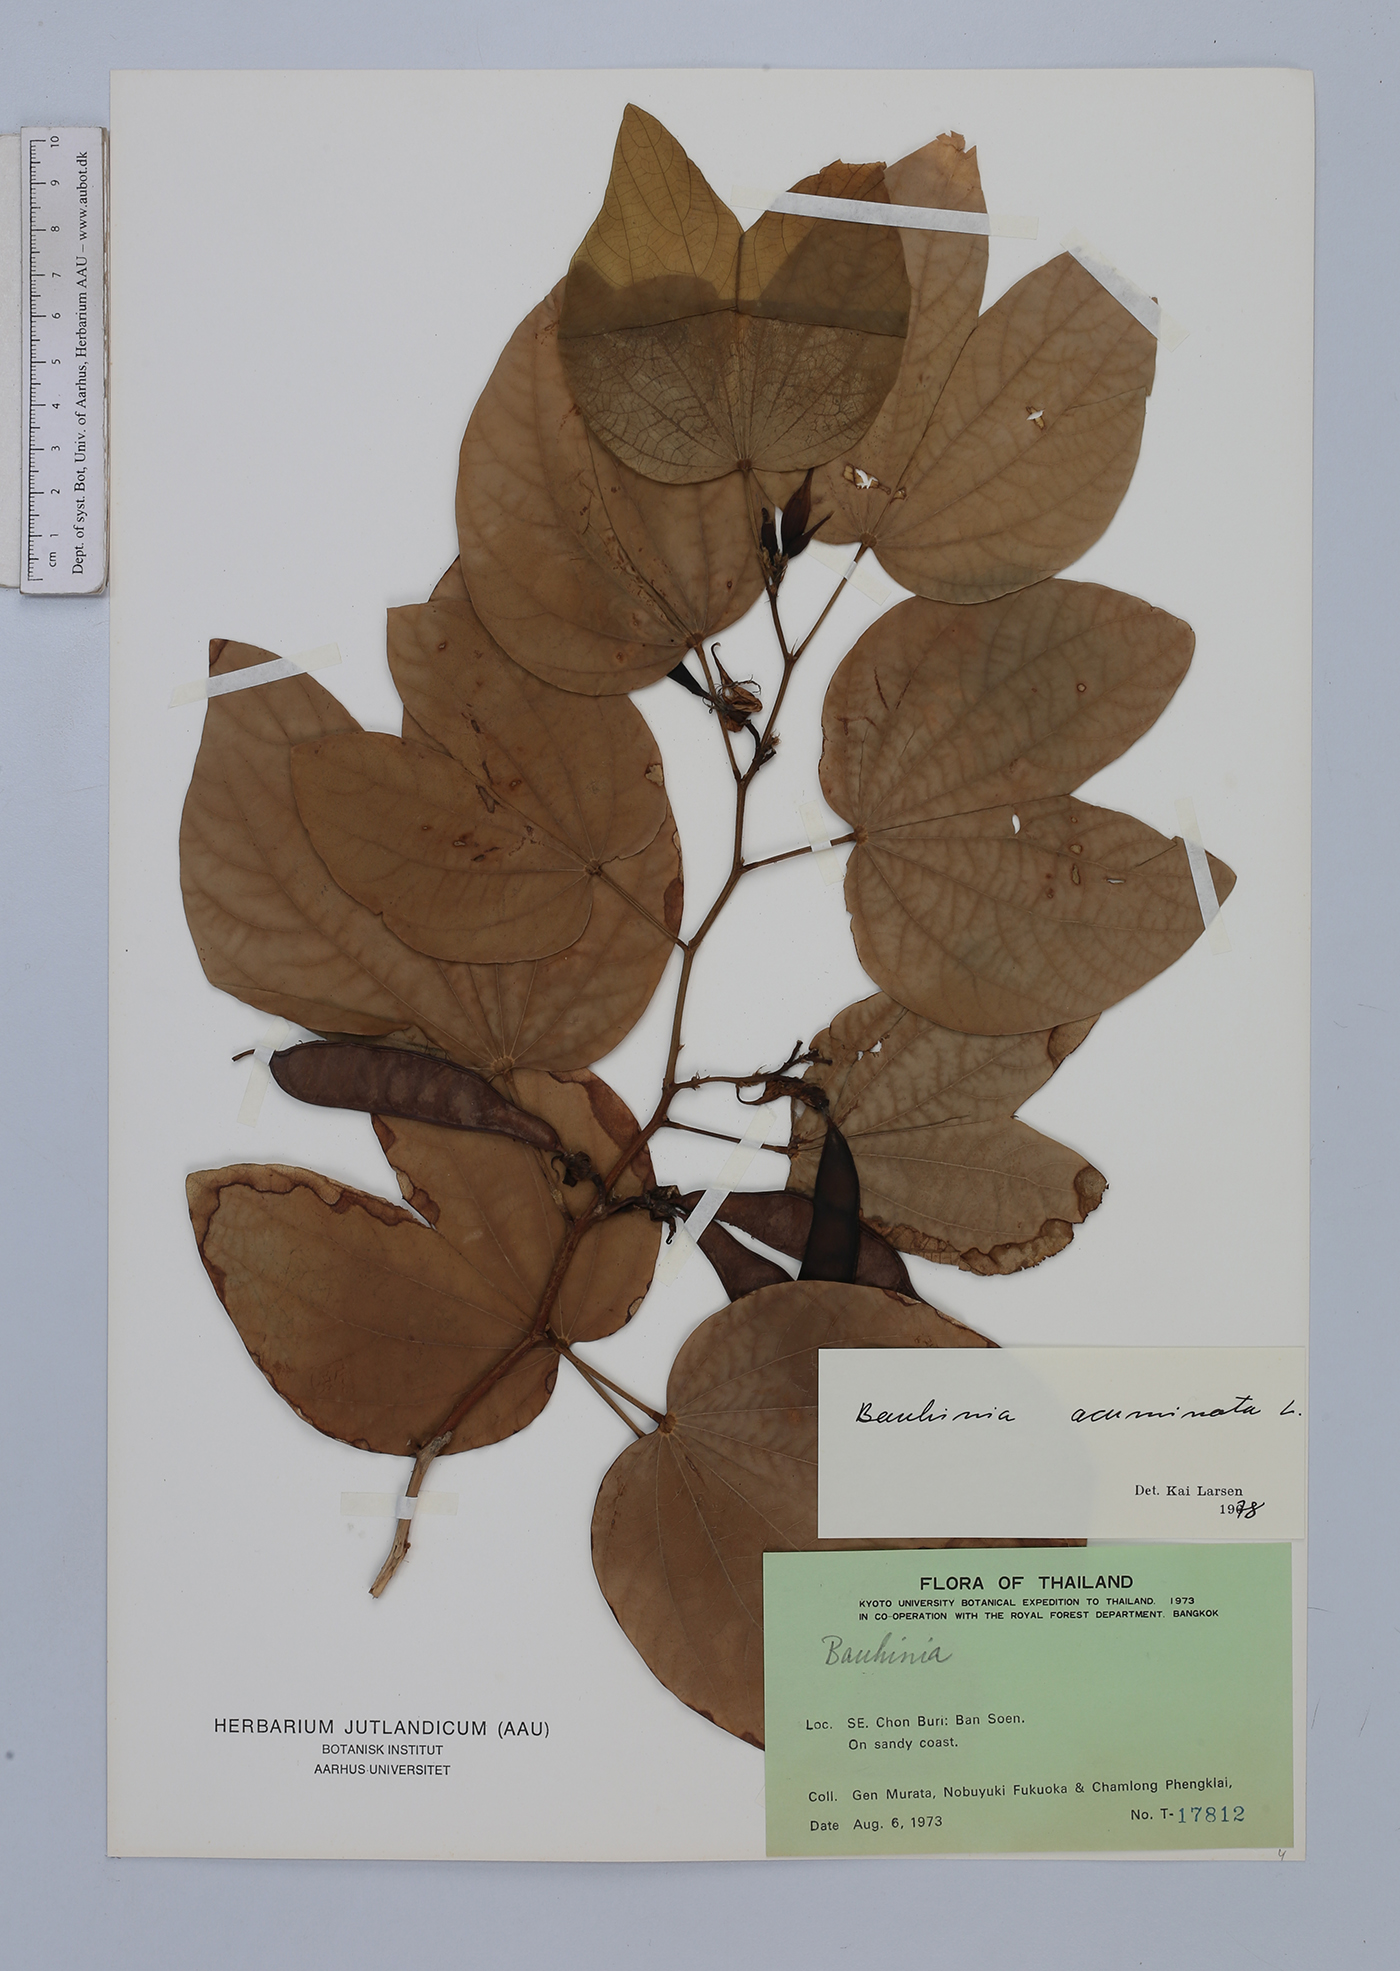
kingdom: Plantae
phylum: Tracheophyta
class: Magnoliopsida
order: Fabales
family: Fabaceae
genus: Bauhinia
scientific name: Bauhinia acuminata
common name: Dwarf white bauhinia
